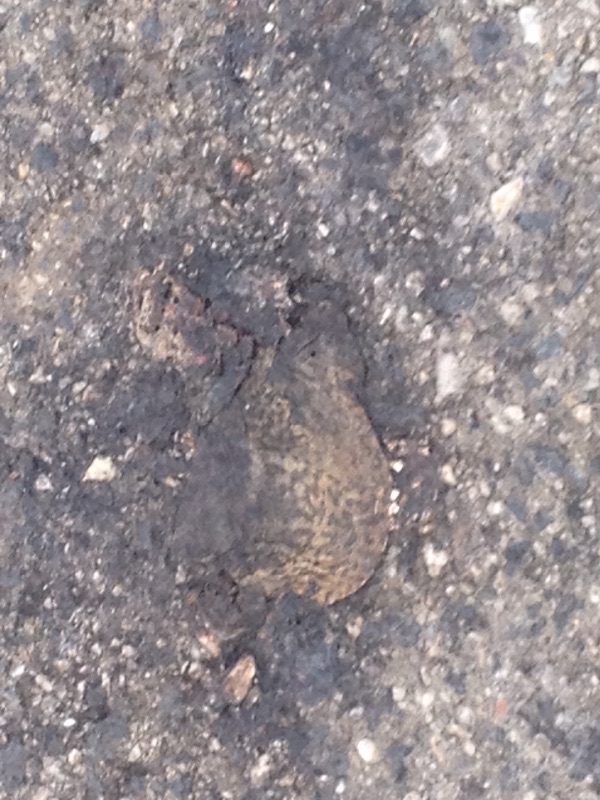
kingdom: Animalia
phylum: Chordata
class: Amphibia
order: Anura
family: Bufonidae
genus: Bufo
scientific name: Bufo bufo
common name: Common toad
